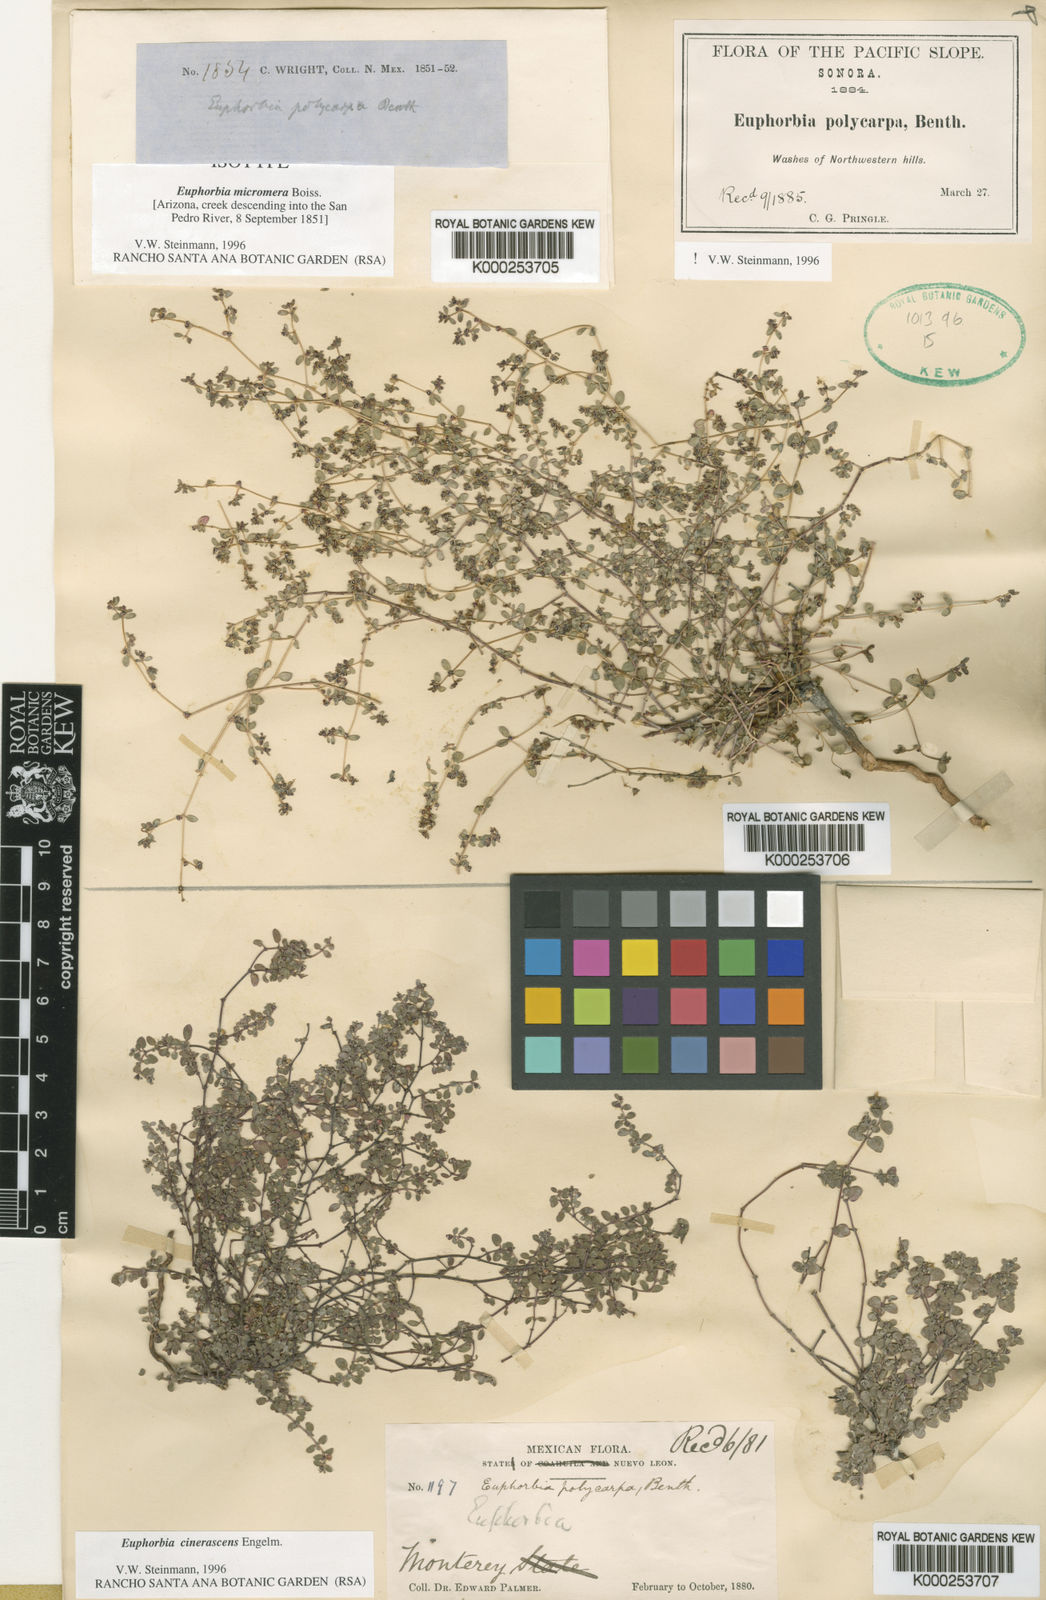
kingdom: Plantae
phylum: Tracheophyta
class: Magnoliopsida
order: Malpighiales
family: Euphorbiaceae
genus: Euphorbia
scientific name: Euphorbia
